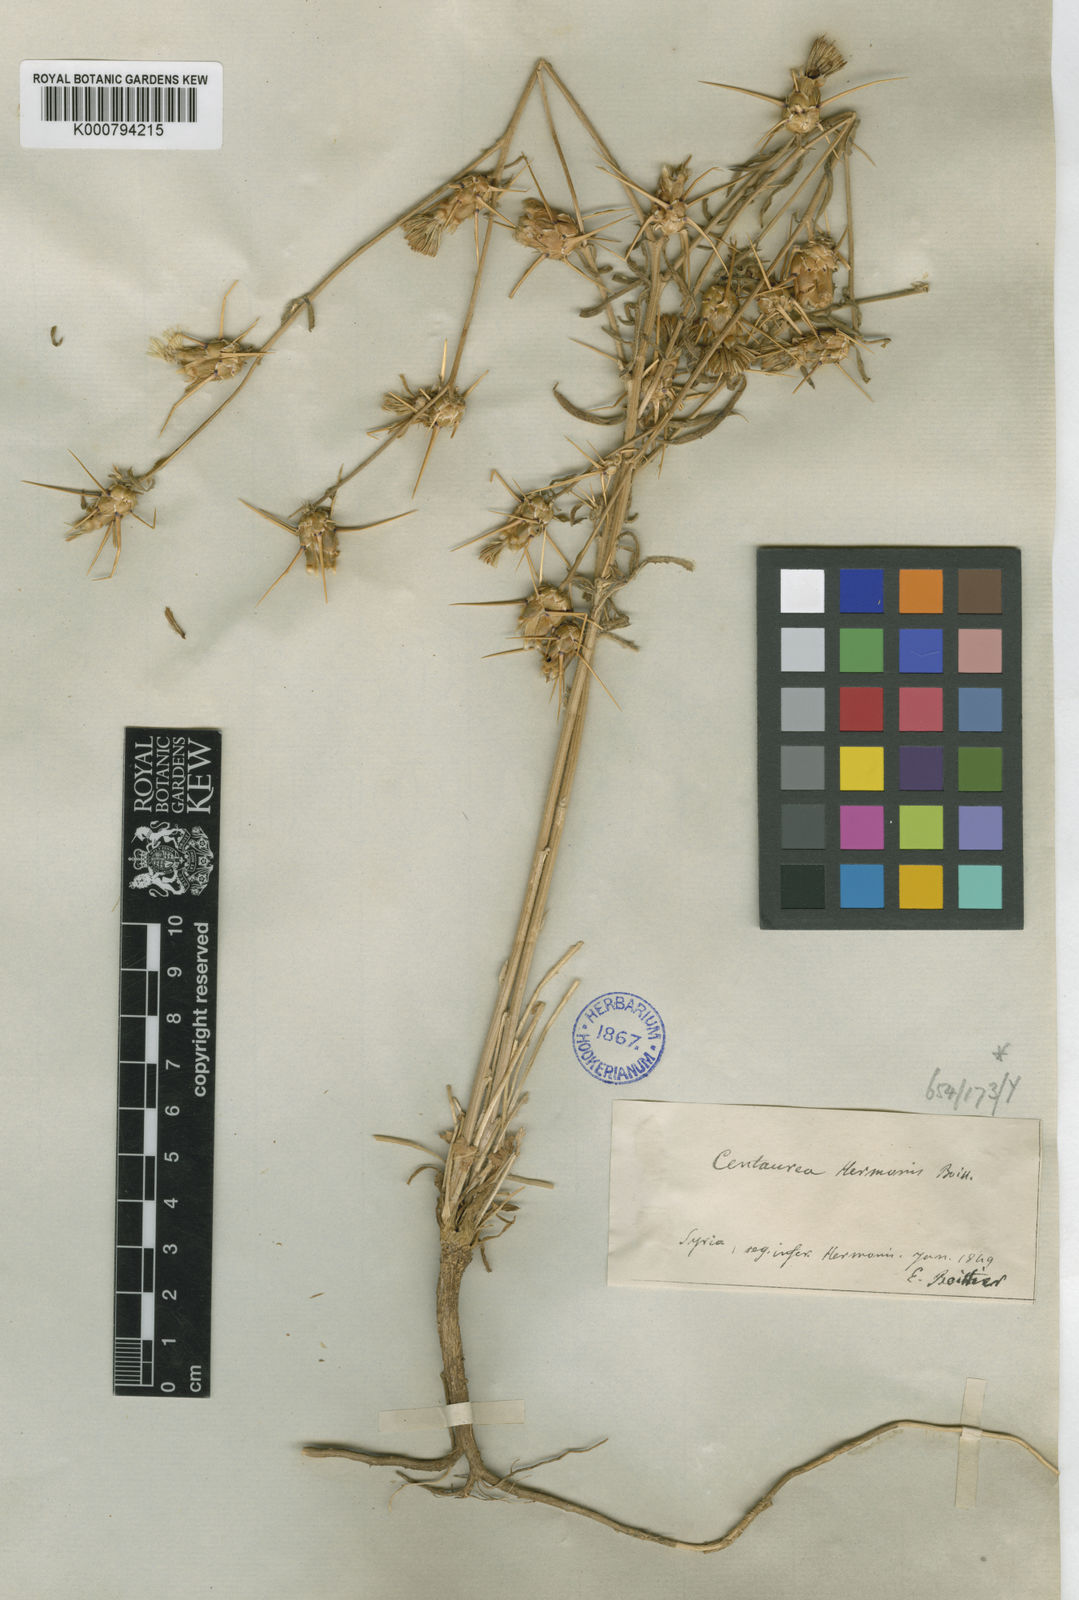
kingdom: Plantae
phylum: Tracheophyta
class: Magnoliopsida
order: Asterales
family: Asteraceae
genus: Centaurea
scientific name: Centaurea iberica
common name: Iberian knapweed
